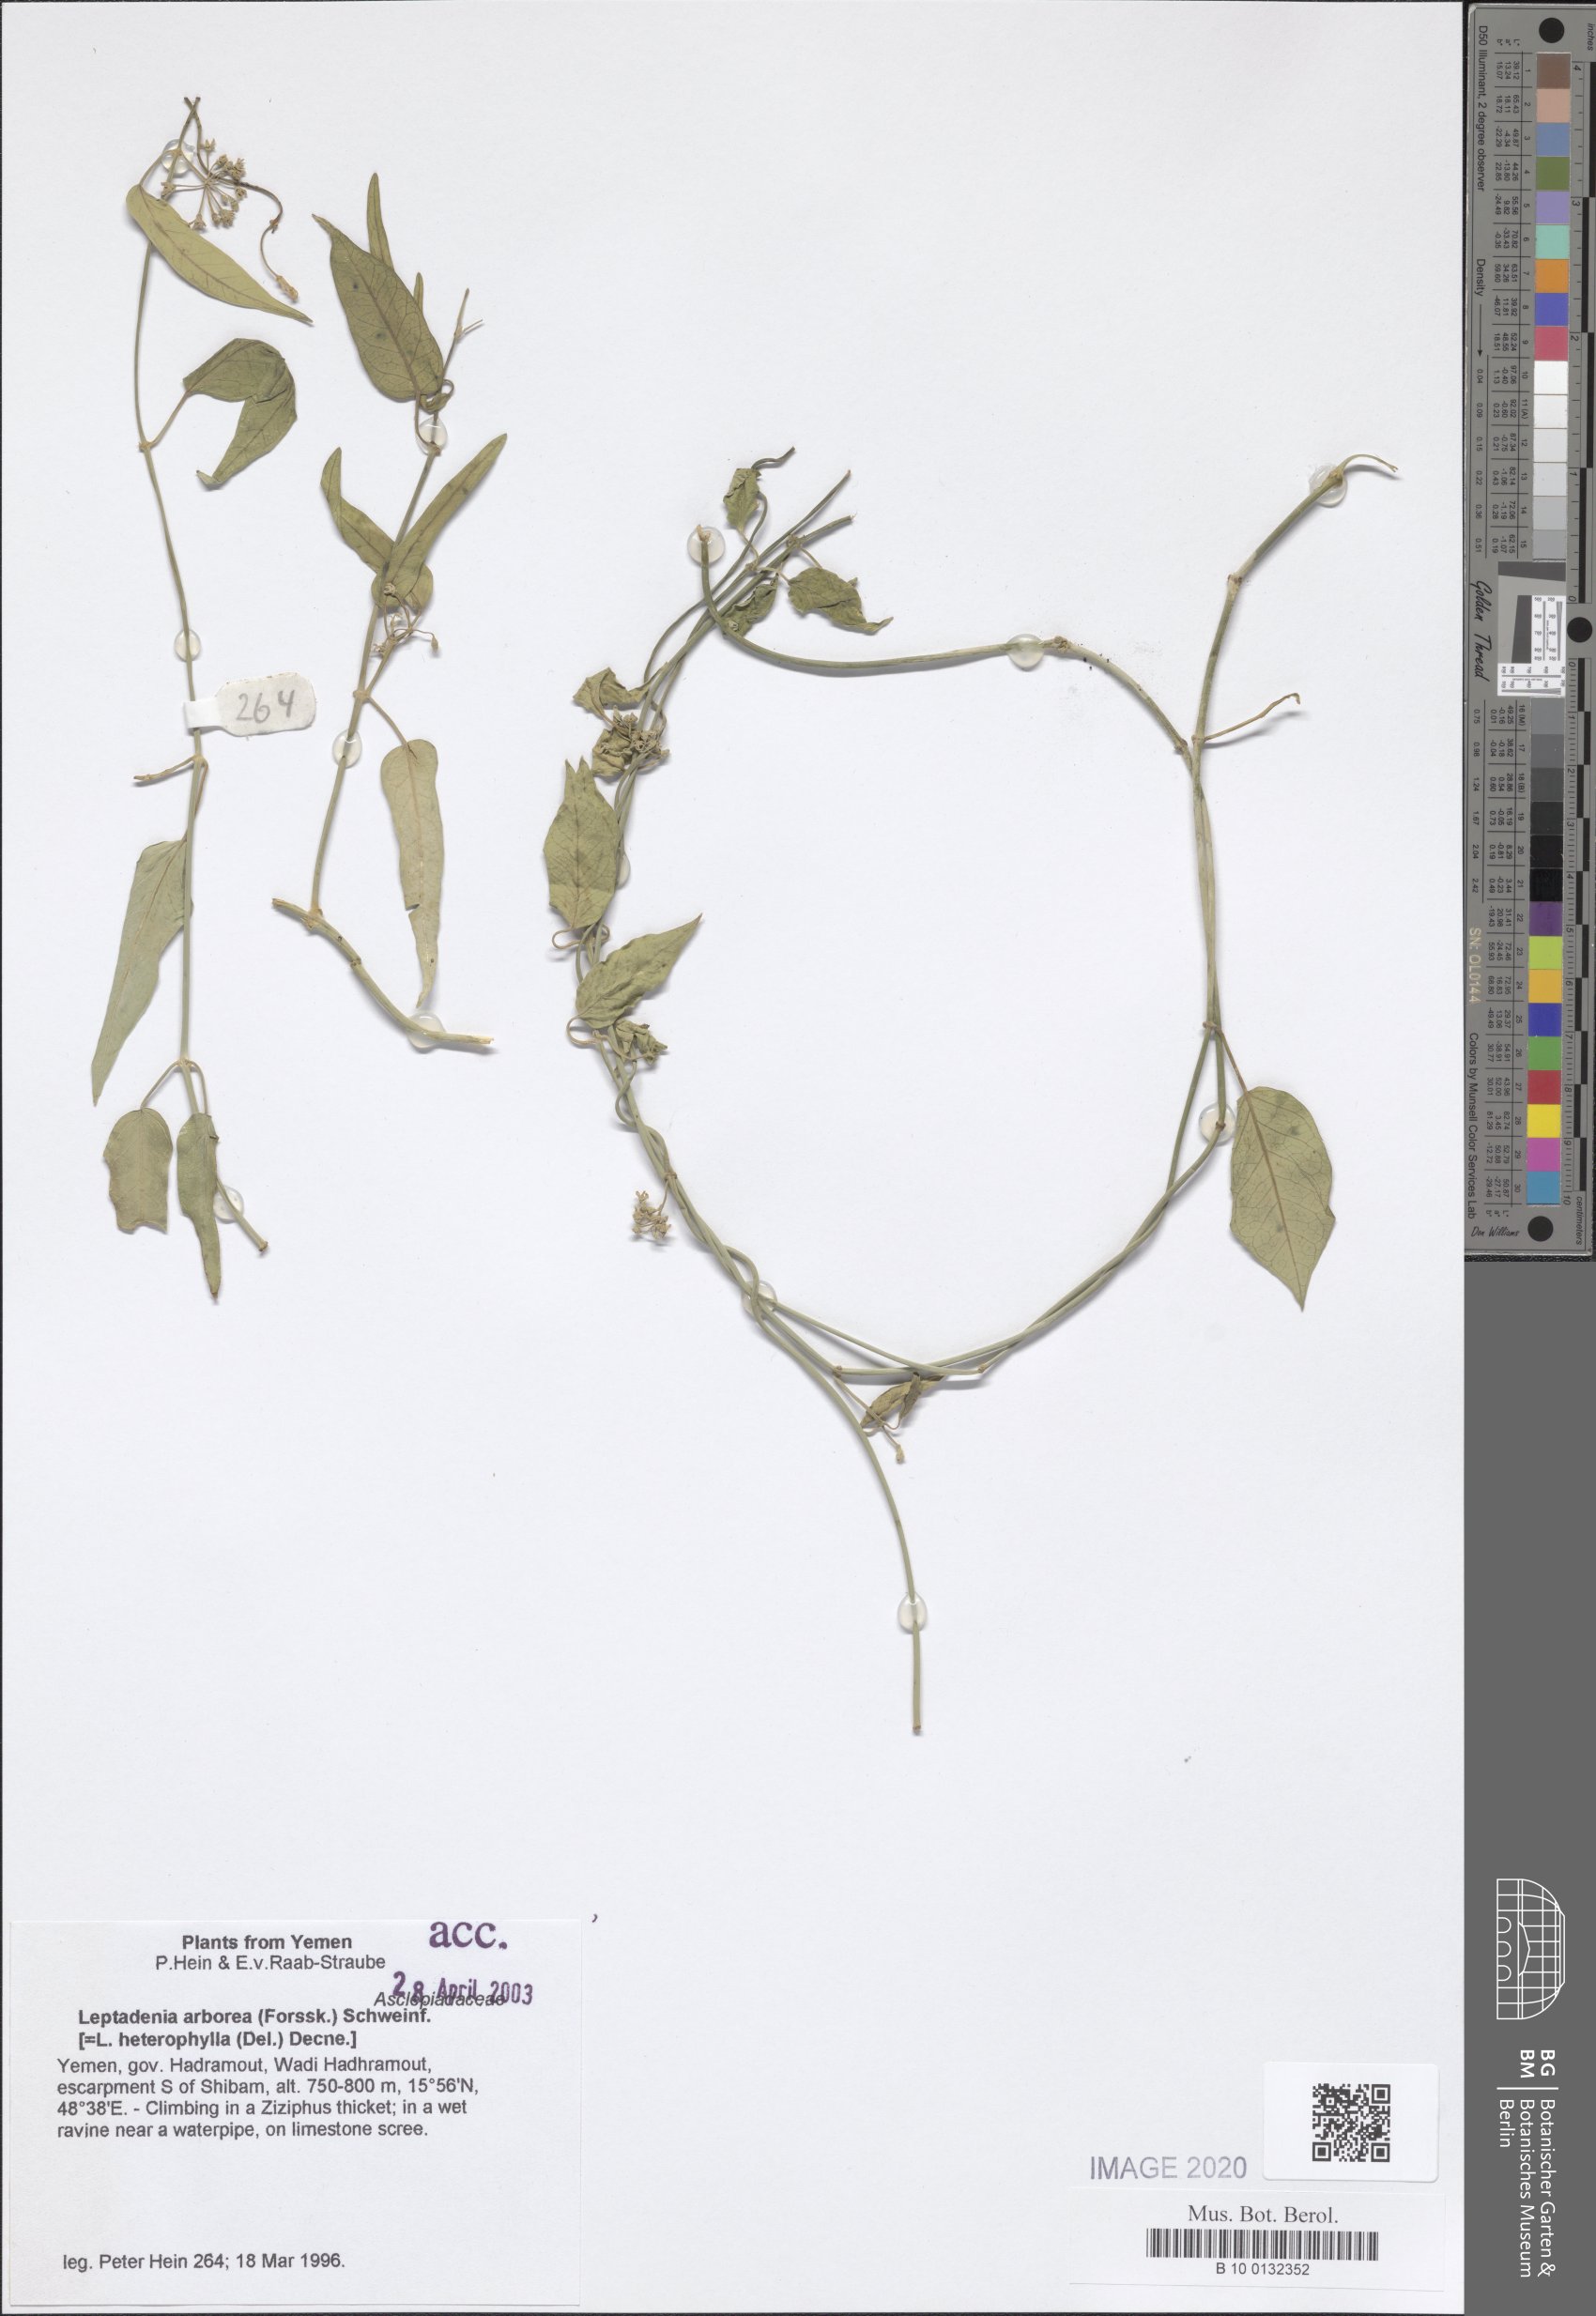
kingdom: Plantae
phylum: Tracheophyta
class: Magnoliopsida
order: Gentianales
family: Apocynaceae
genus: Leptadenia
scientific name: Leptadenia arborea
